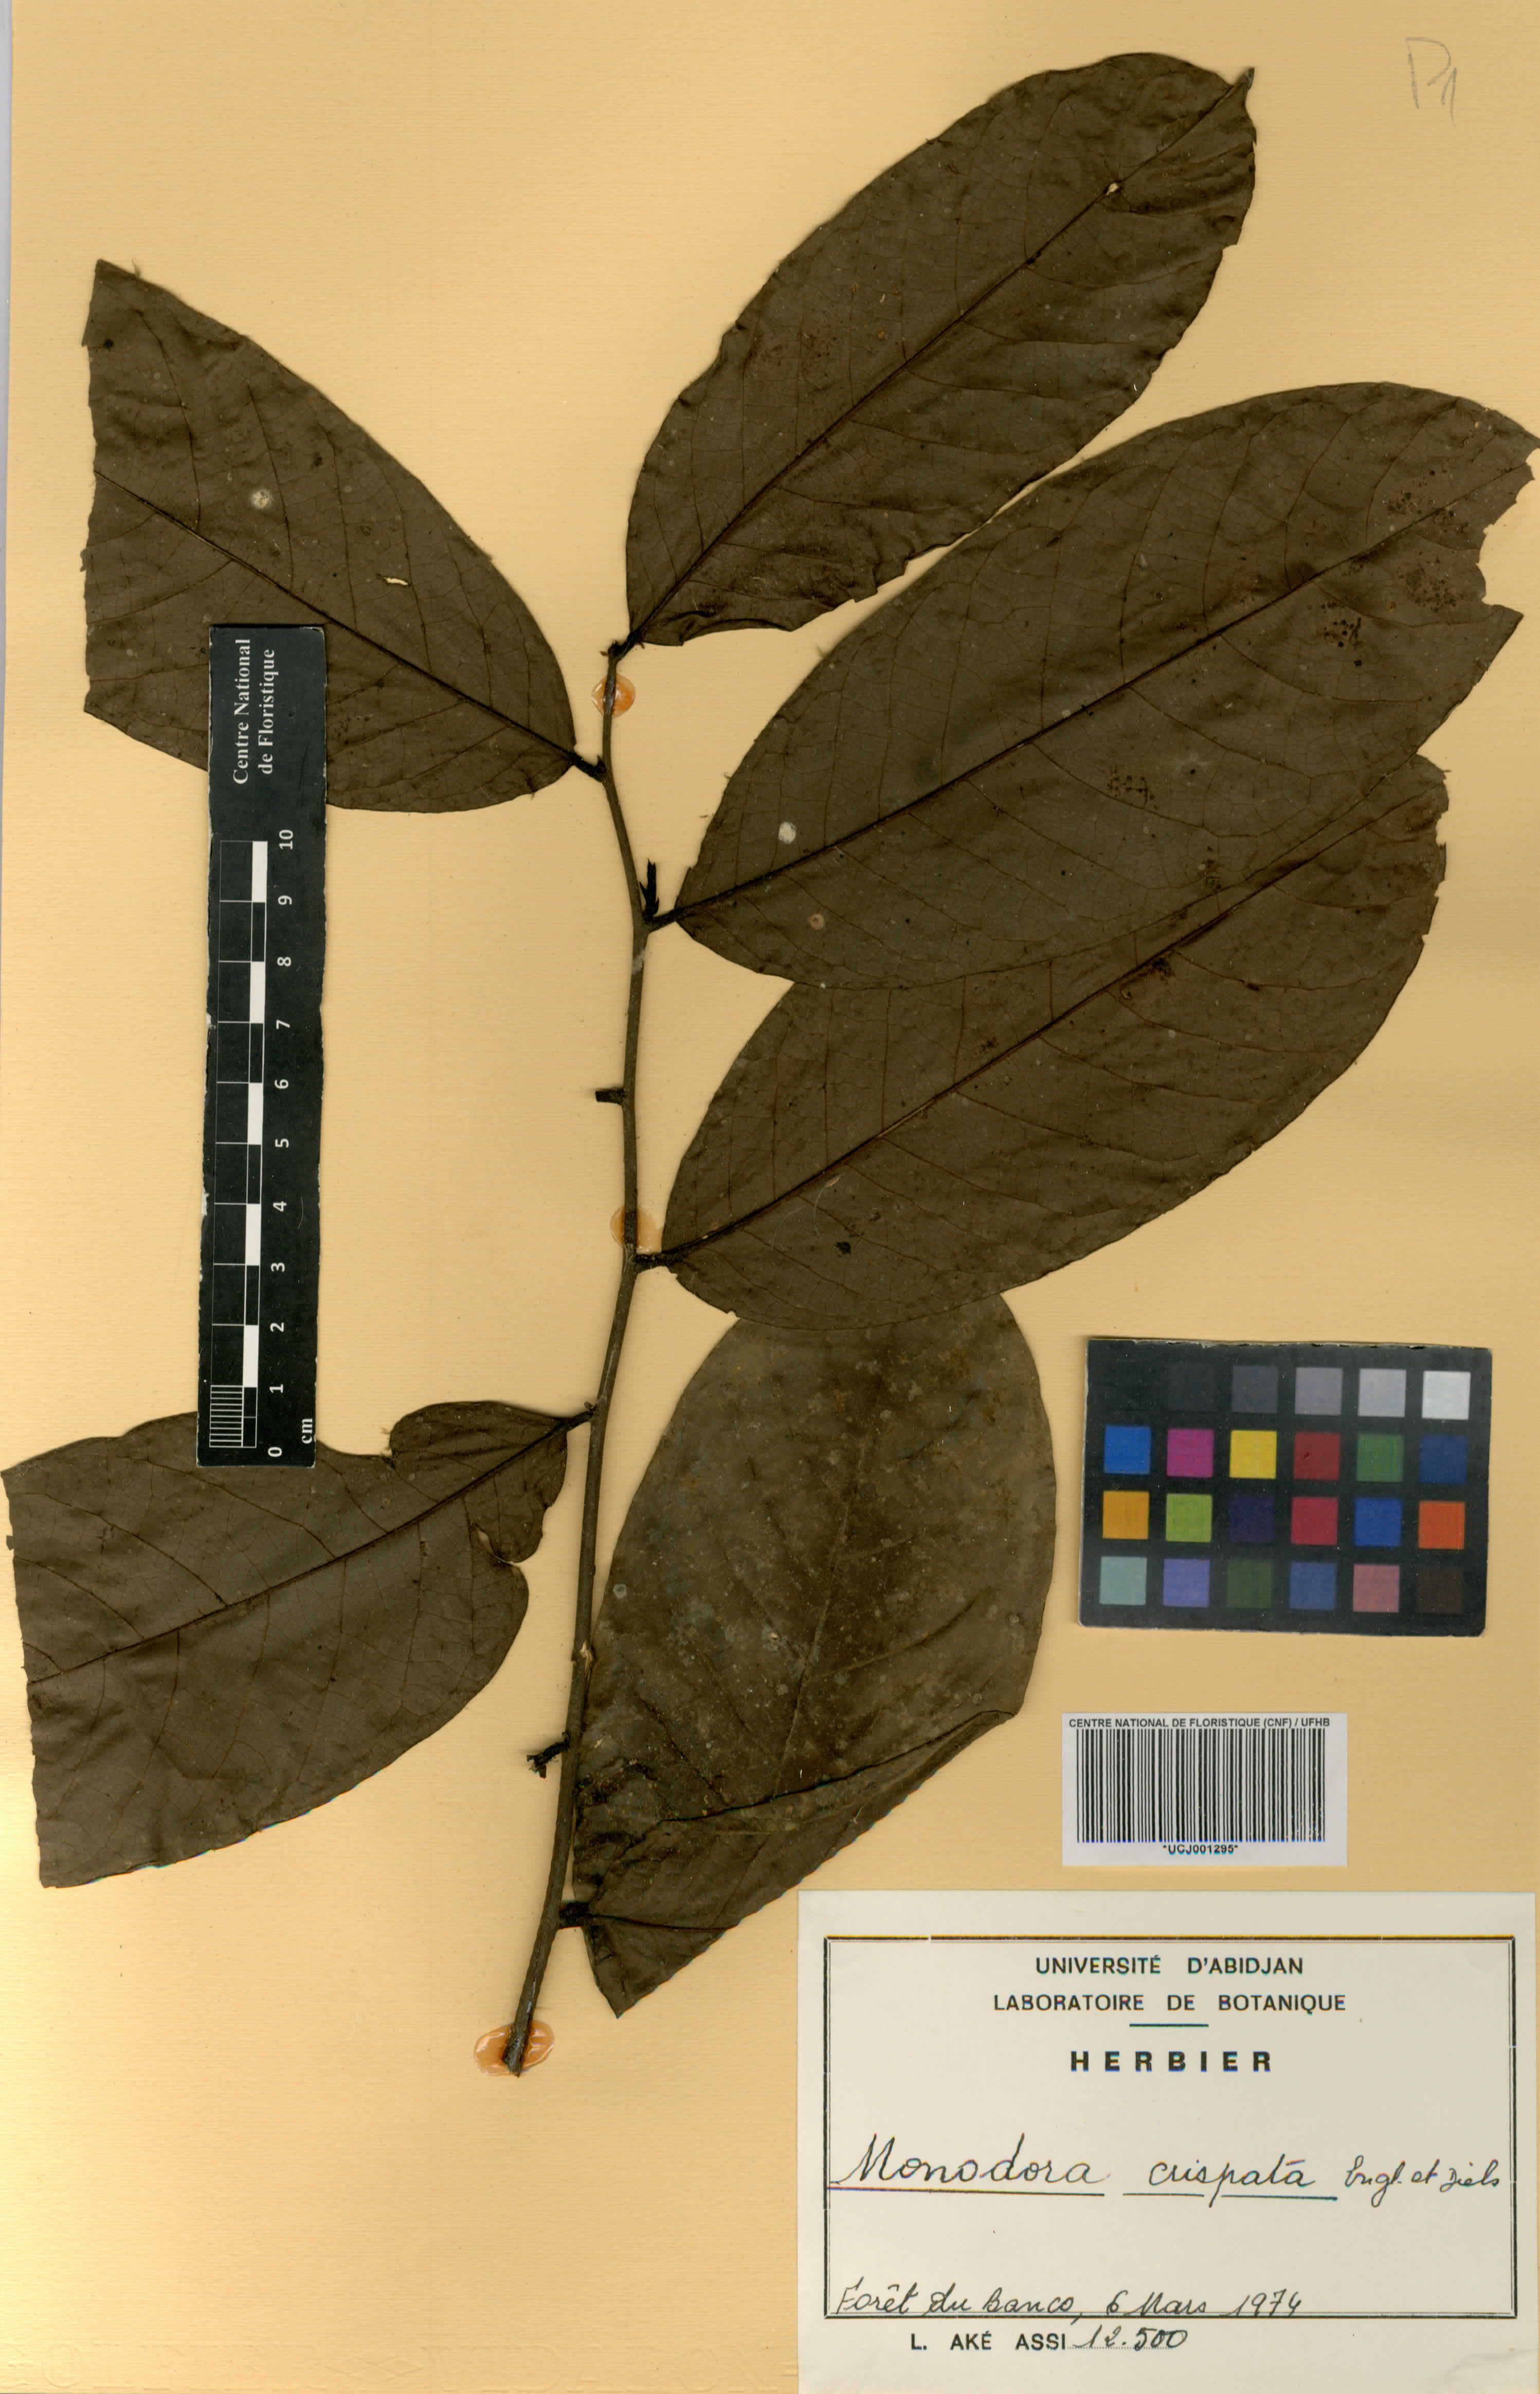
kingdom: Plantae
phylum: Tracheophyta
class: Magnoliopsida
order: Magnoliales
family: Annonaceae
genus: Monodora
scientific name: Monodora crispata
